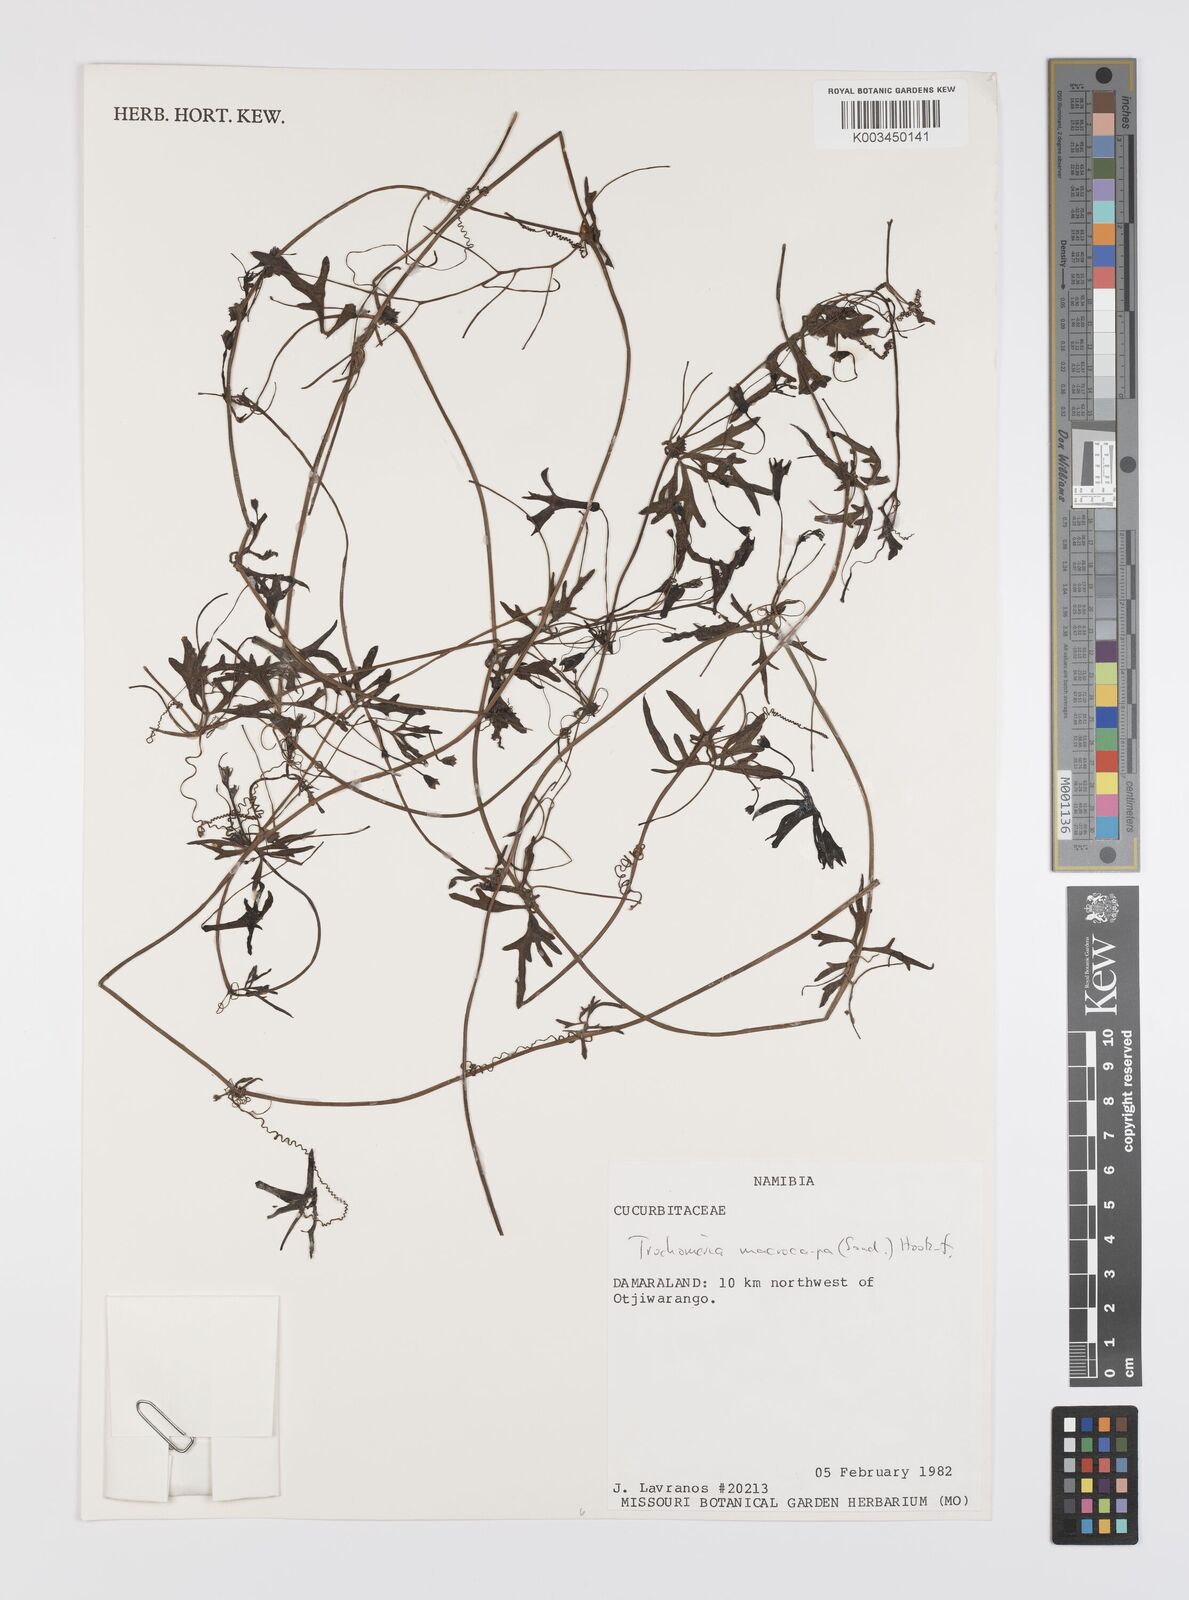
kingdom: Plantae
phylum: Tracheophyta
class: Magnoliopsida
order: Cucurbitales
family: Cucurbitaceae
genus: Trochomeria
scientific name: Trochomeria macrocarpa
